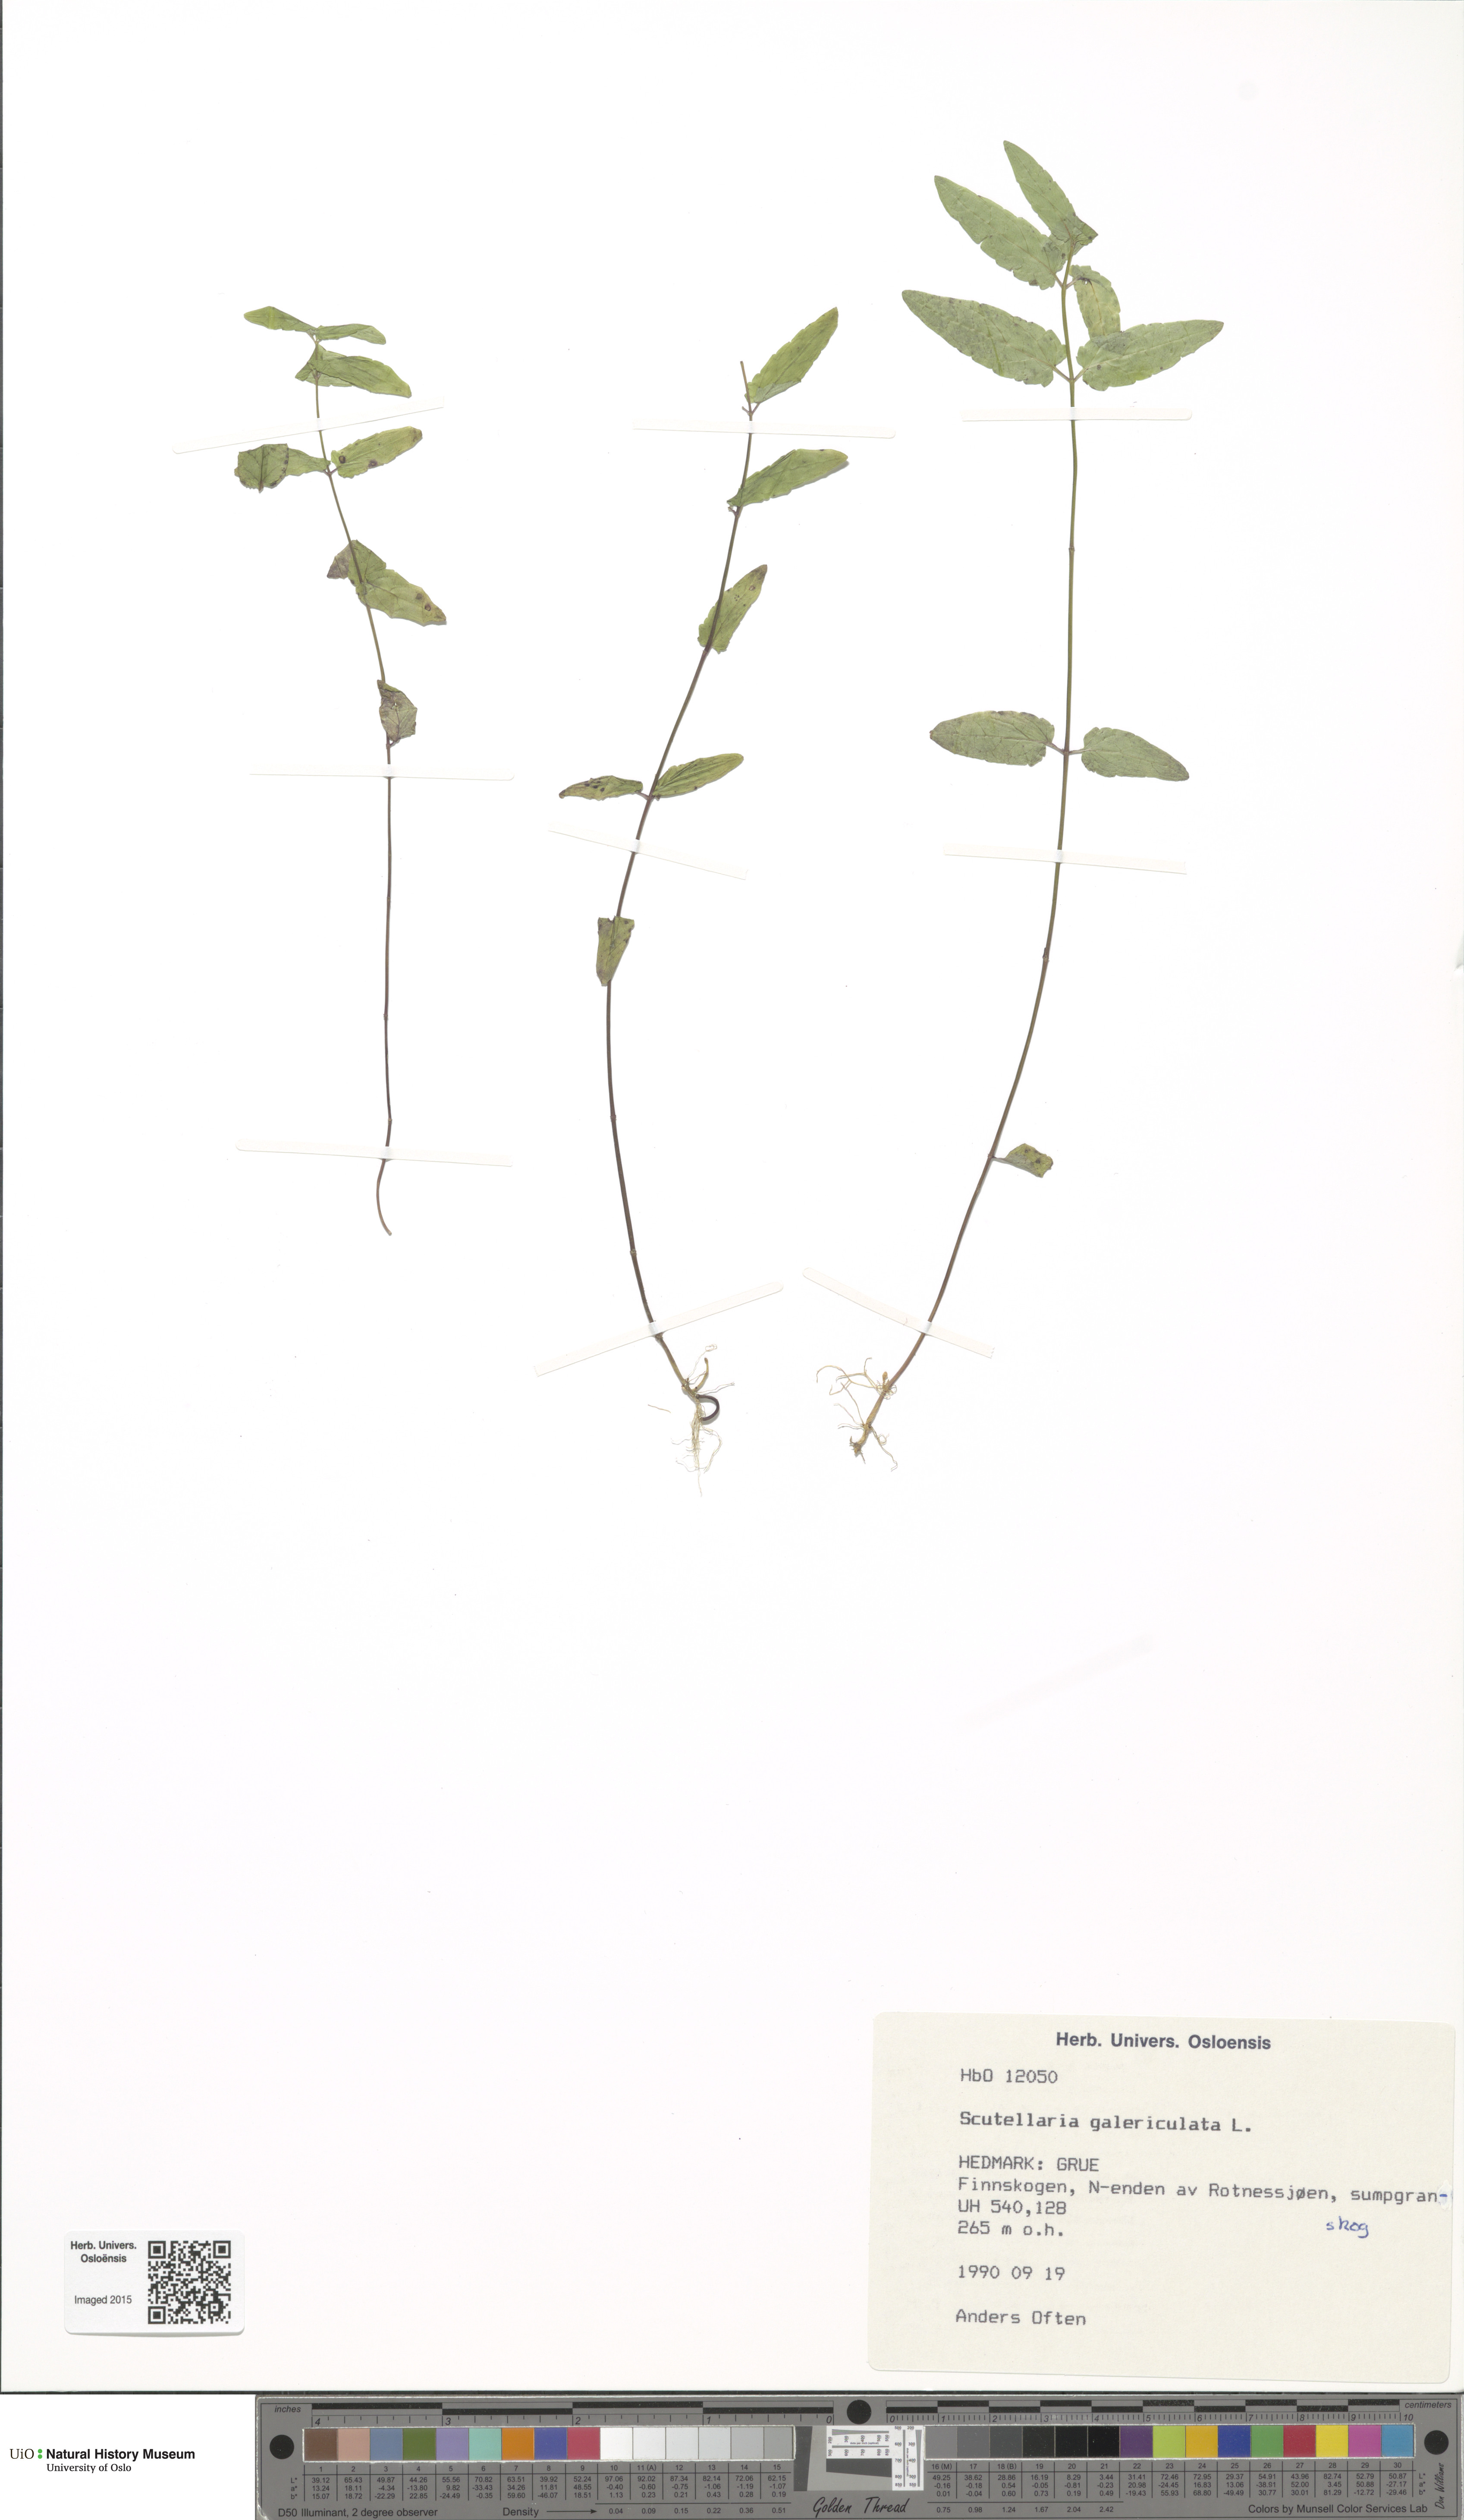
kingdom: Plantae
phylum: Tracheophyta
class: Magnoliopsida
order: Lamiales
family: Lamiaceae
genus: Scutellaria
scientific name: Scutellaria galericulata
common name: Skullcap
